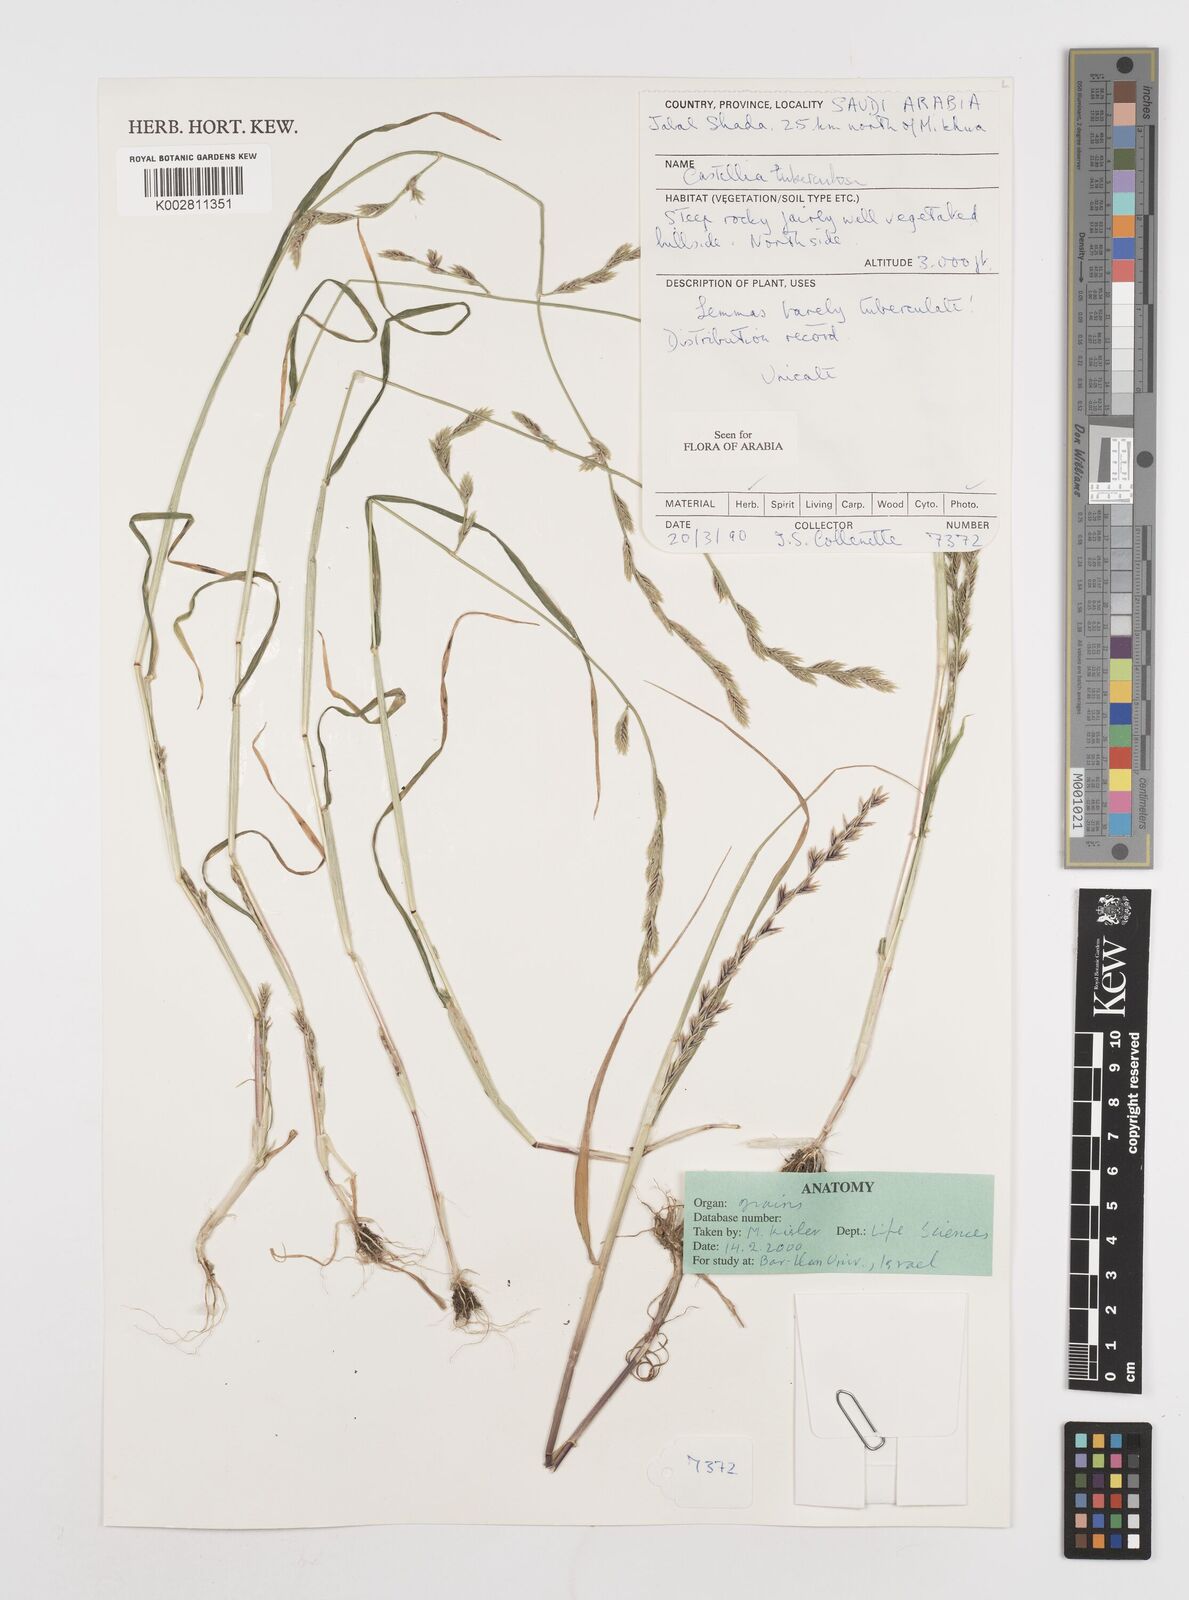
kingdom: Plantae
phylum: Tracheophyta
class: Liliopsida
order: Poales
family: Poaceae
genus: Castellia
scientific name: Castellia tuberculosa
